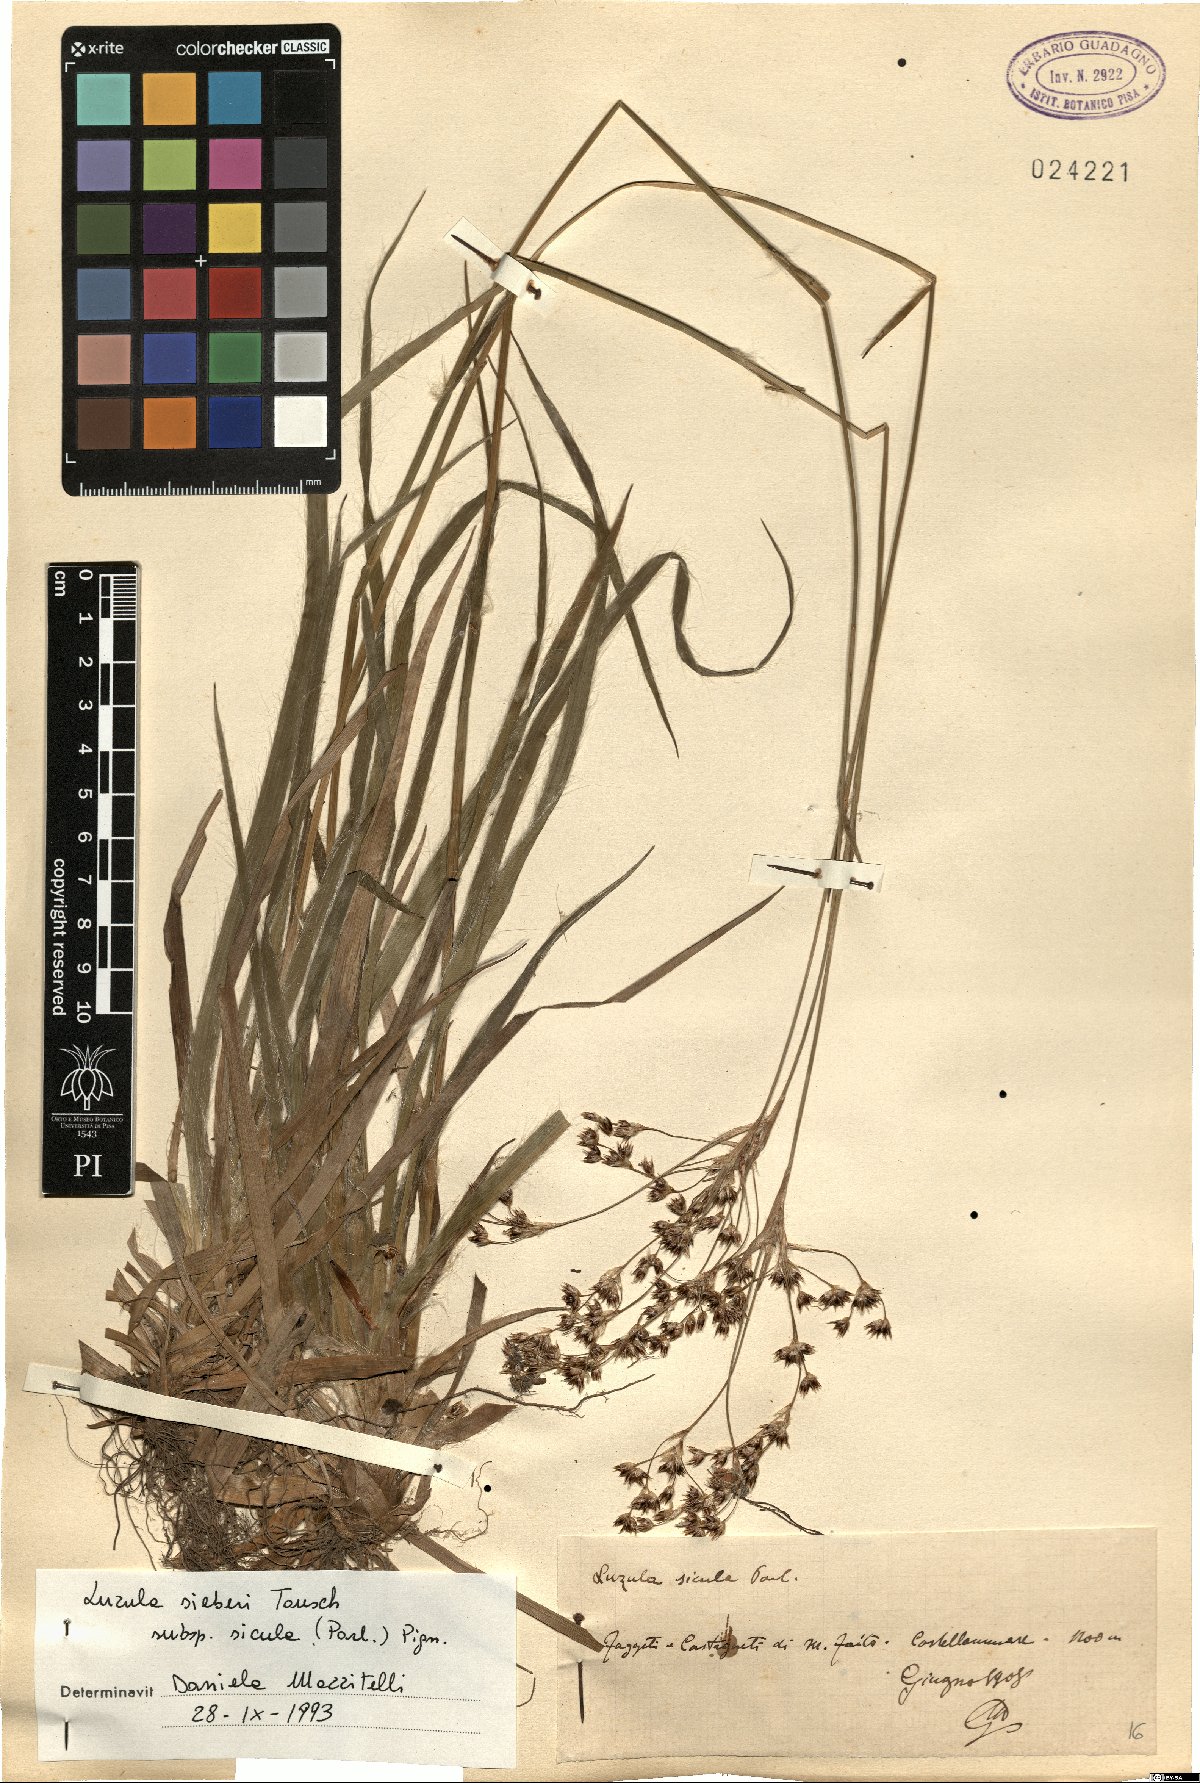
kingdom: Plantae
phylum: Tracheophyta
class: Liliopsida
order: Poales
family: Juncaceae
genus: Luzula
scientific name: Luzula sylvatica
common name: Great wood-rush
